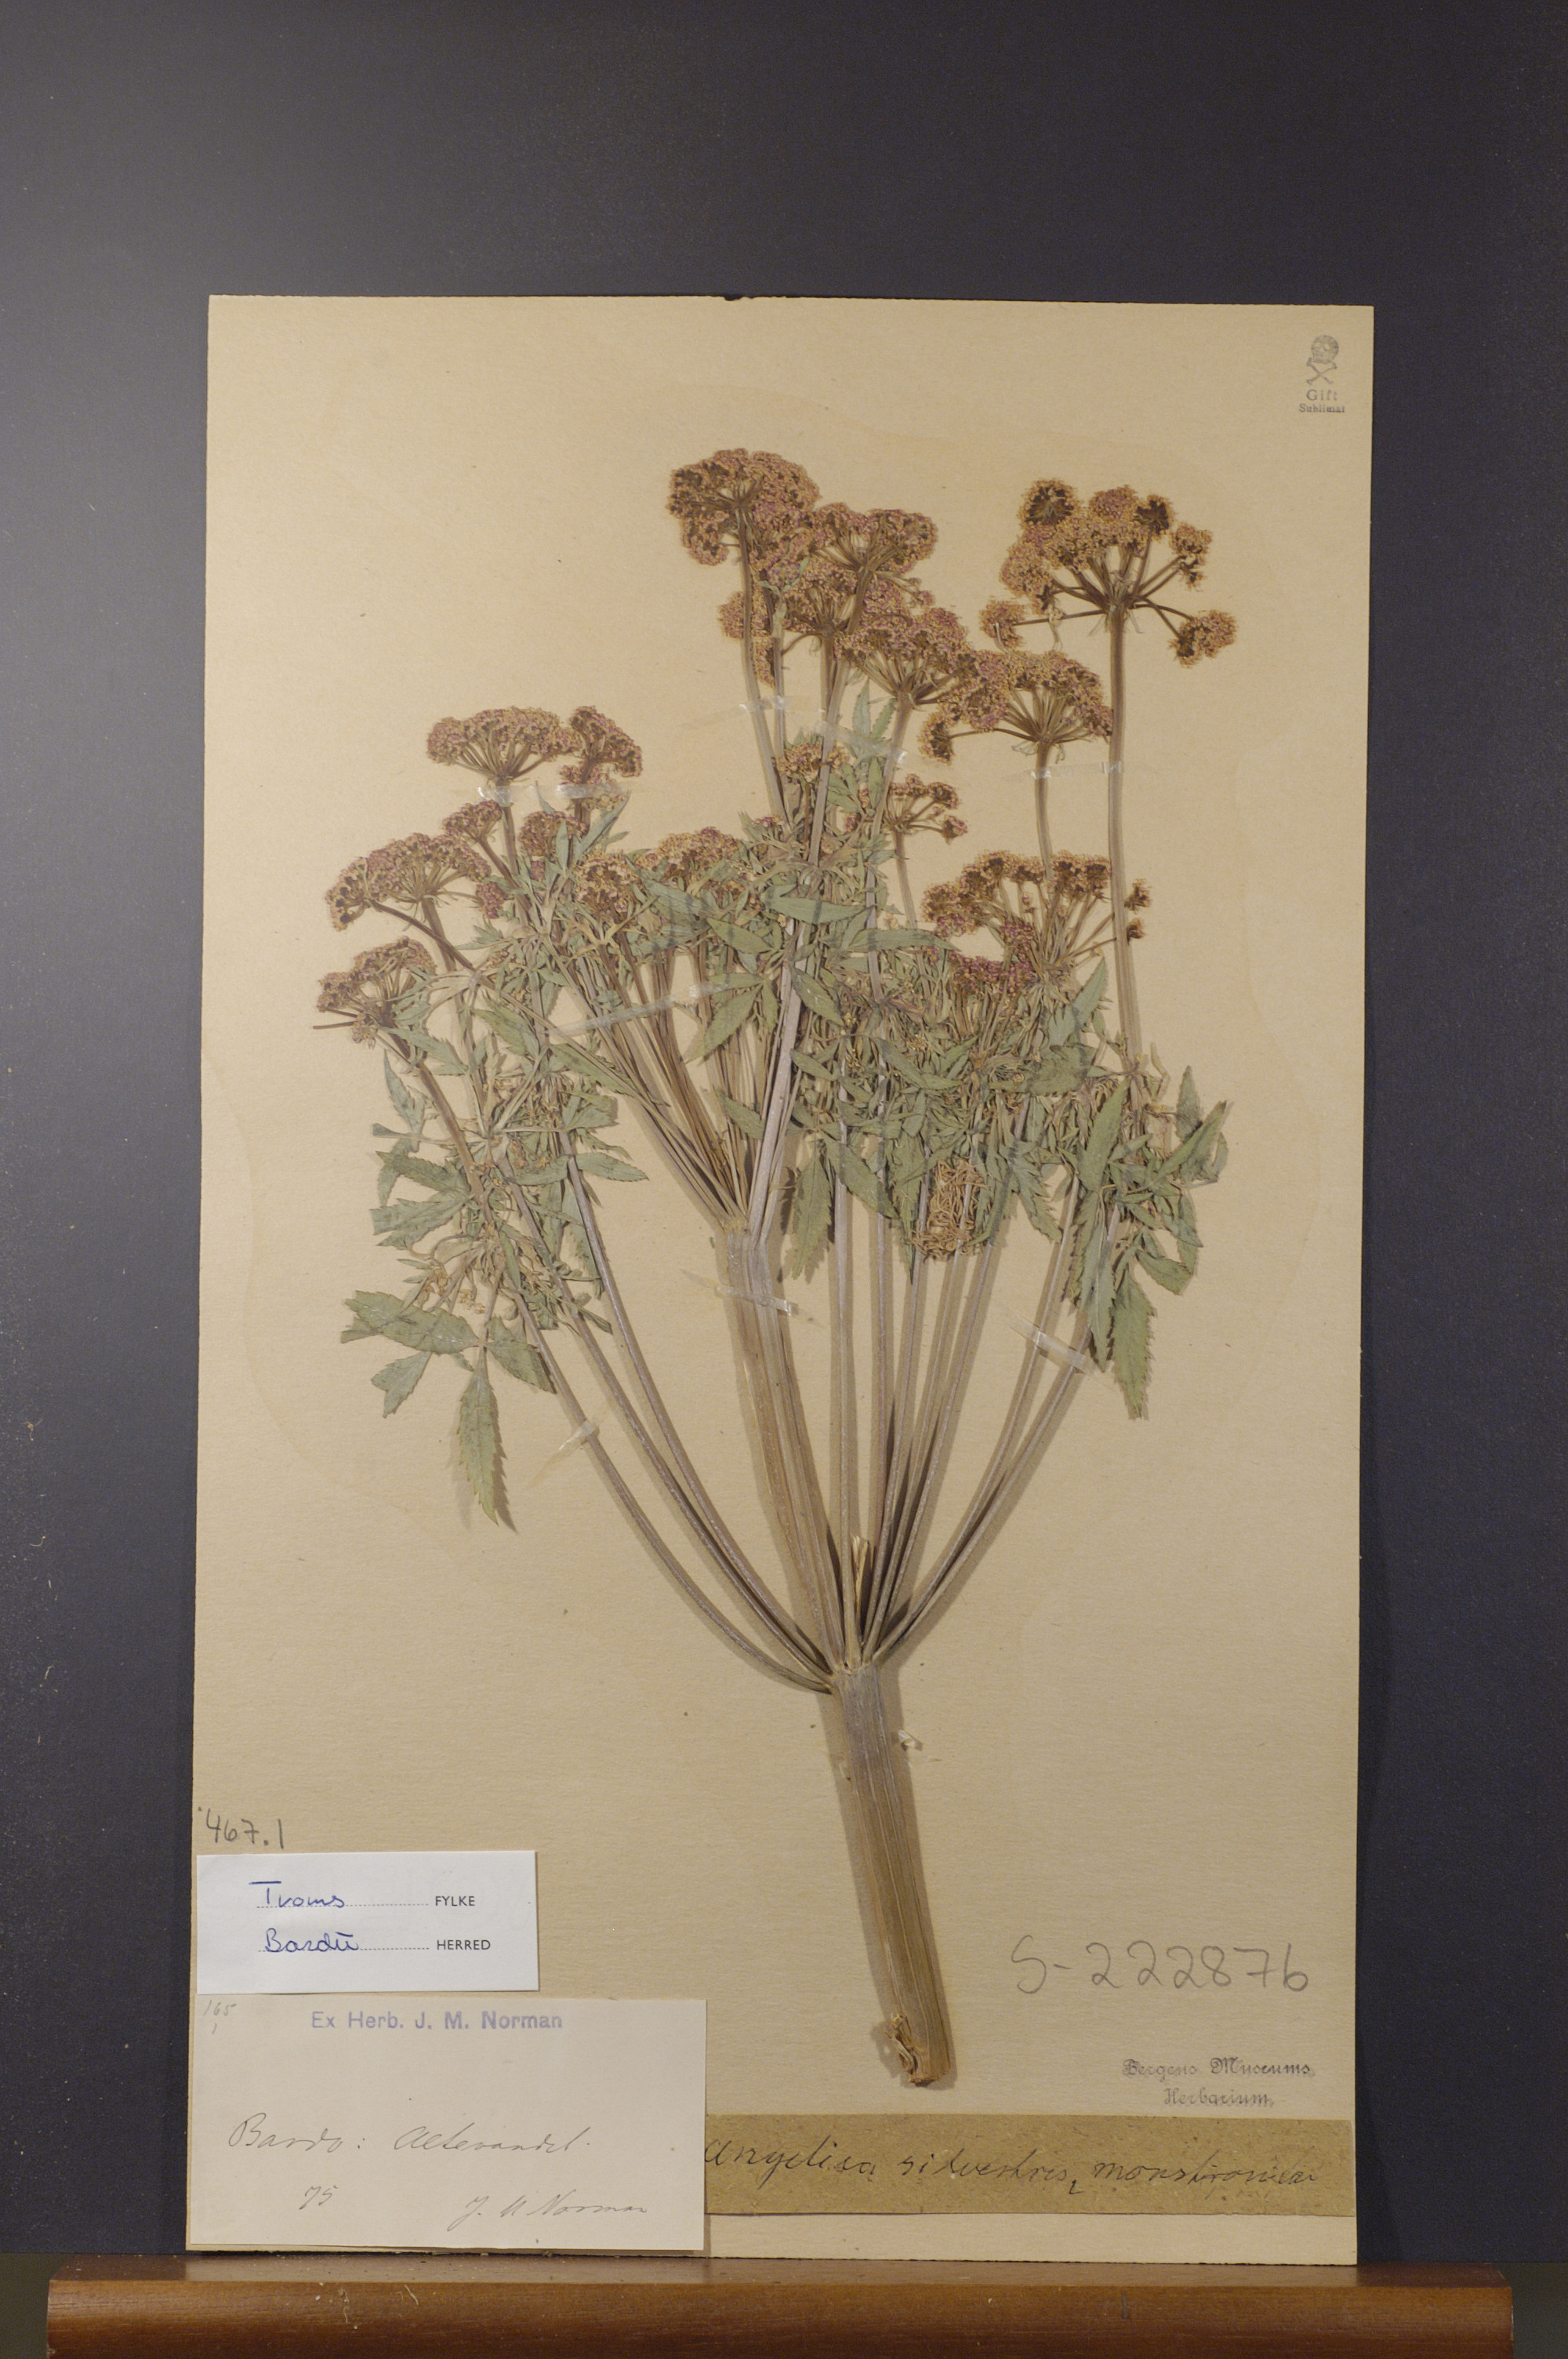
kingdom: Plantae
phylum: Tracheophyta
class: Magnoliopsida
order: Apiales
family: Apiaceae
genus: Angelica
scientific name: Angelica sylvestris
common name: Wild angelica
